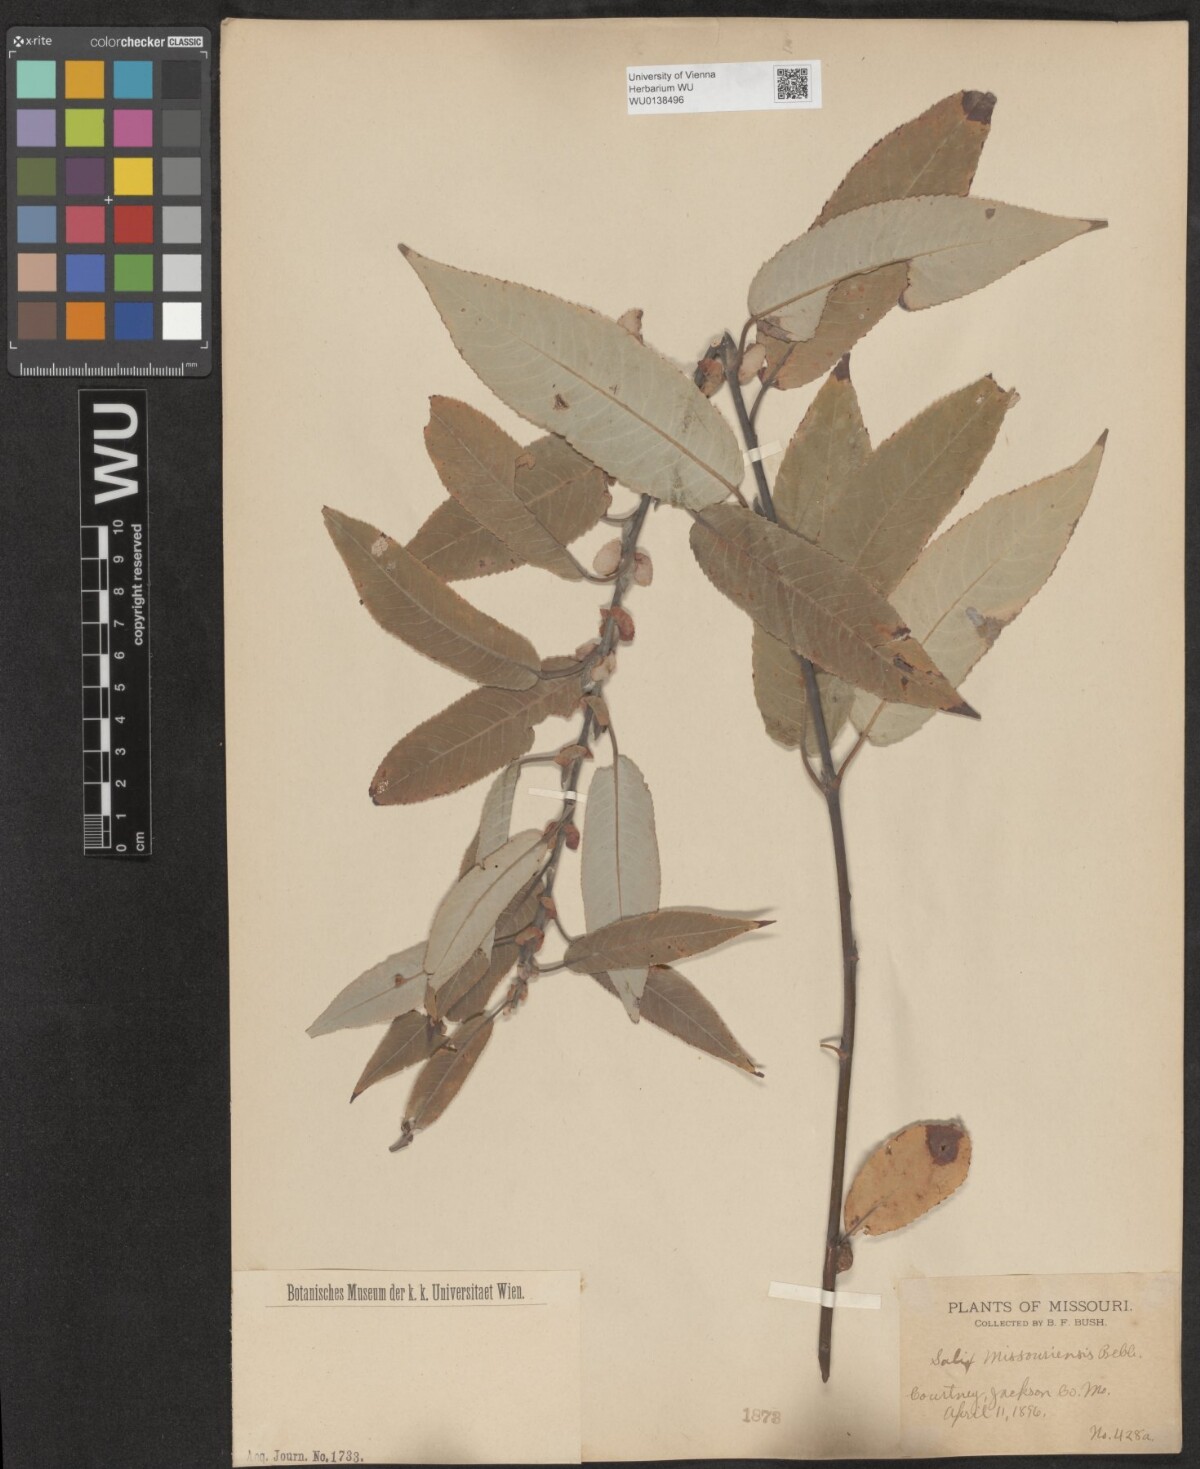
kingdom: Plantae
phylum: Tracheophyta
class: Magnoliopsida
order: Malpighiales
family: Salicaceae
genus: Salix
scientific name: Salix eriocephala
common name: Heart-leaved willow
